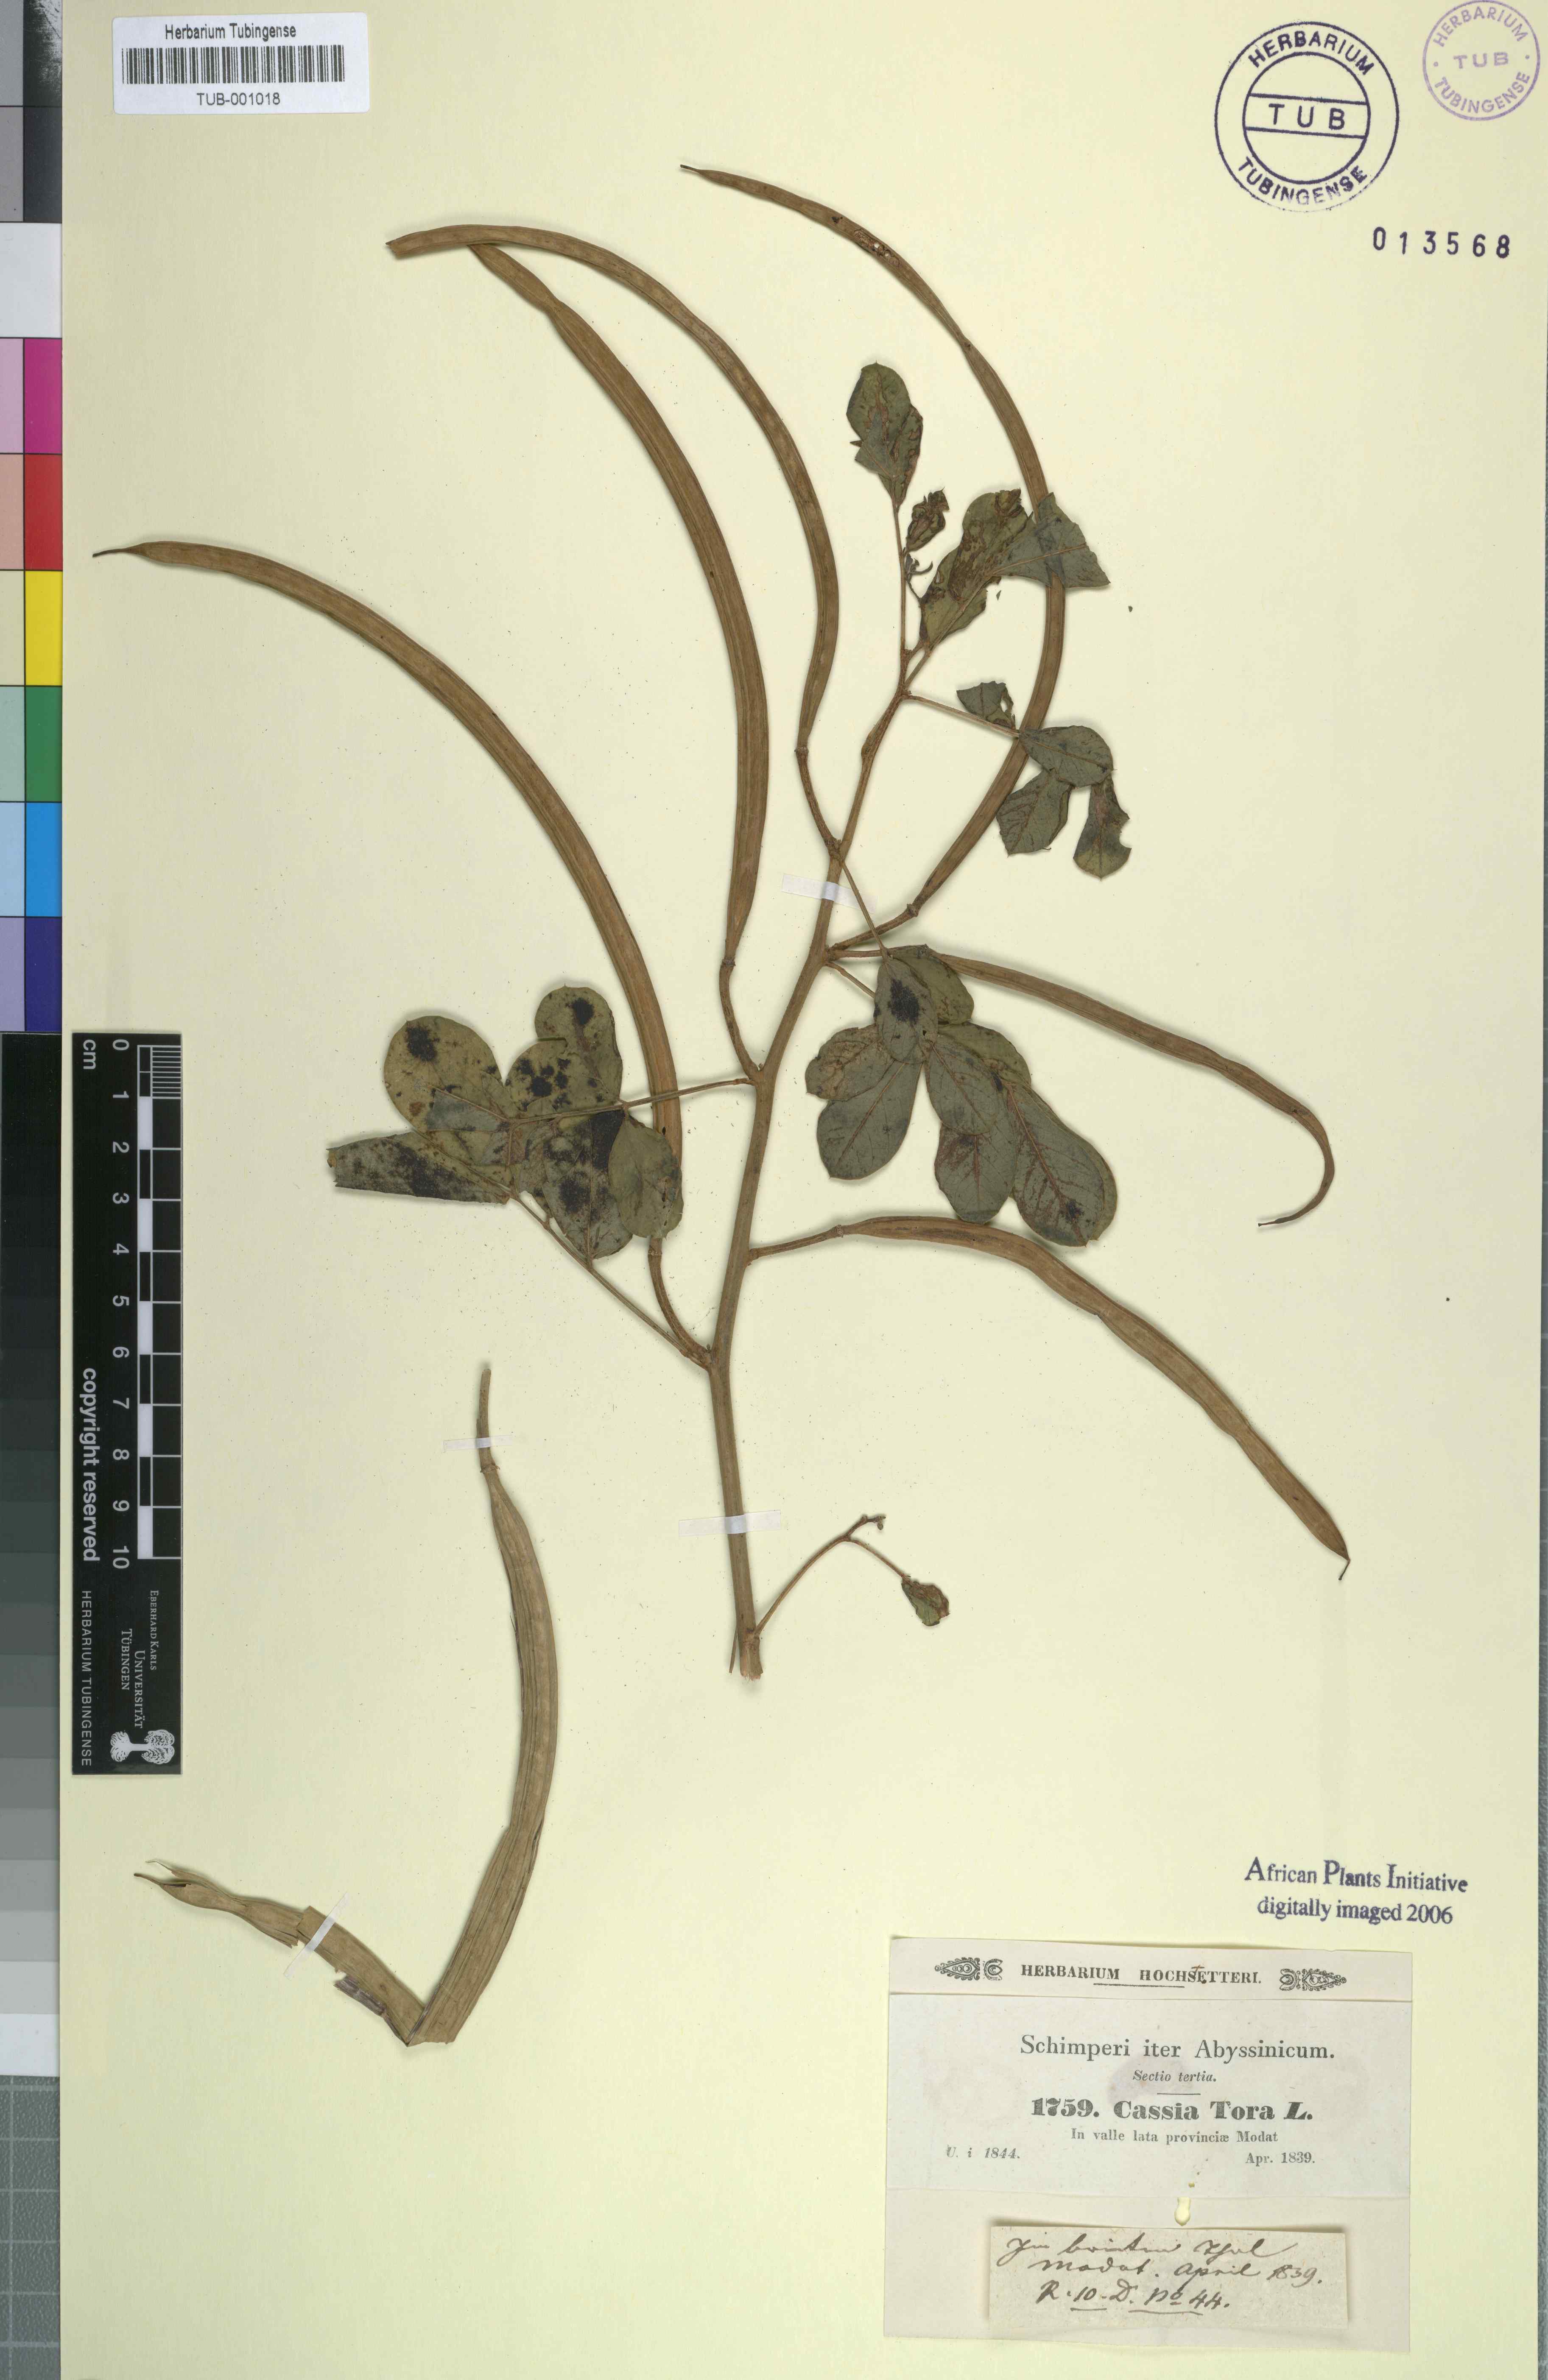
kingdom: Plantae
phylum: Tracheophyta
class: Magnoliopsida
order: Fabales
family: Fabaceae
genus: Senna
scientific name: Senna tora
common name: Sickle senna
